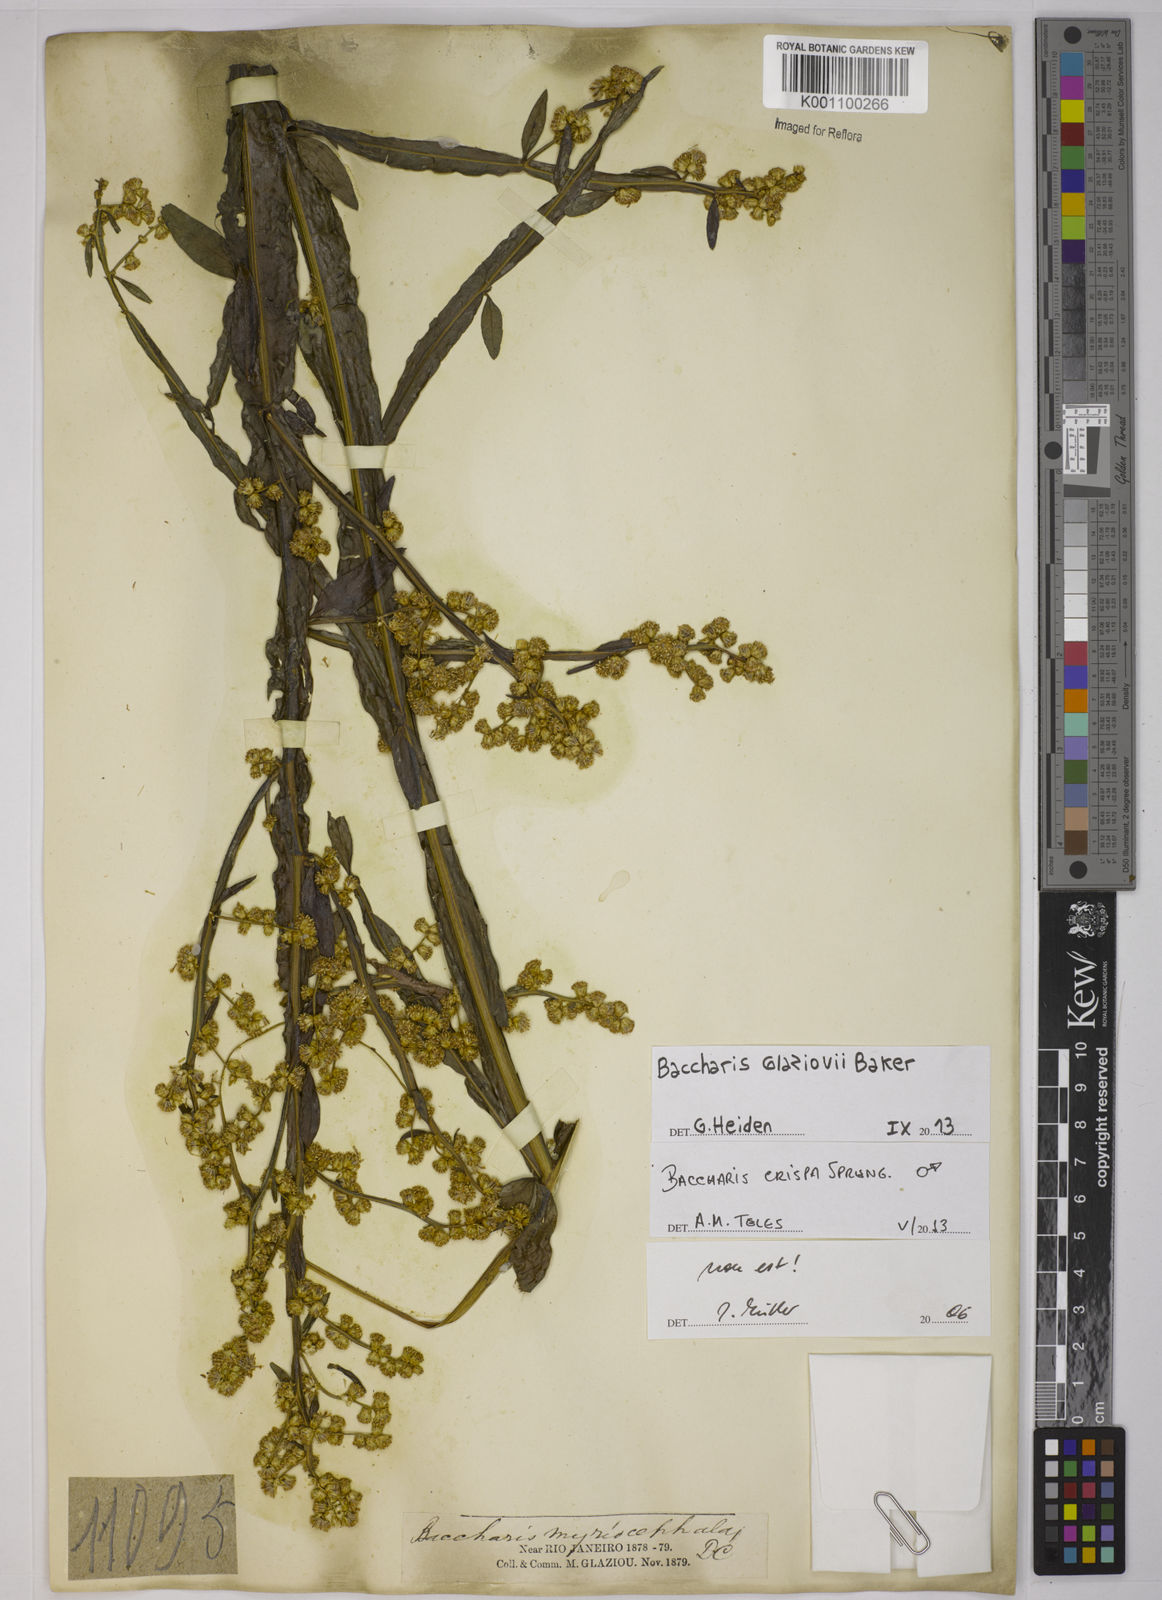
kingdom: Plantae
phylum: Tracheophyta
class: Magnoliopsida
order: Asterales
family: Asteraceae
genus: Baccharis
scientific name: Baccharis glaziovii
